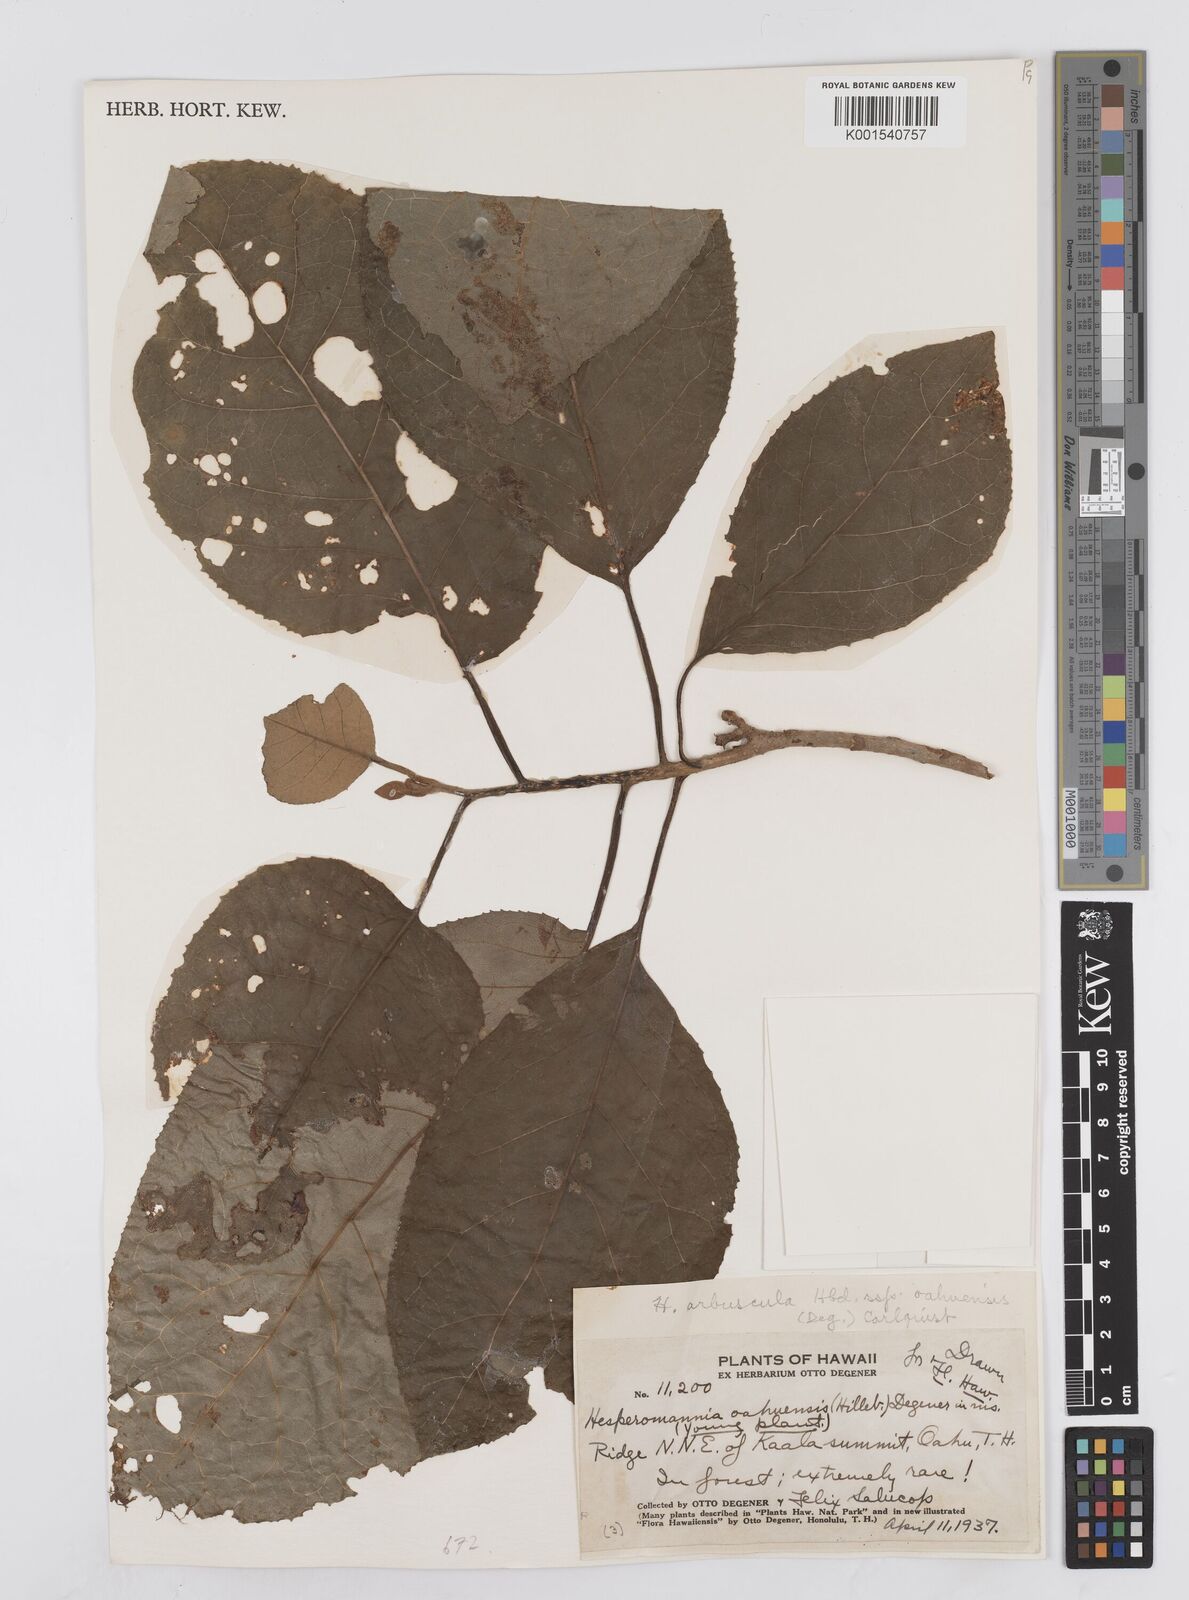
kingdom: Plantae
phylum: Tracheophyta
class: Magnoliopsida
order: Asterales
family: Asteraceae
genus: Hesperomannia
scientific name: Hesperomannia arbuscula
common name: Maui hesperomannia
